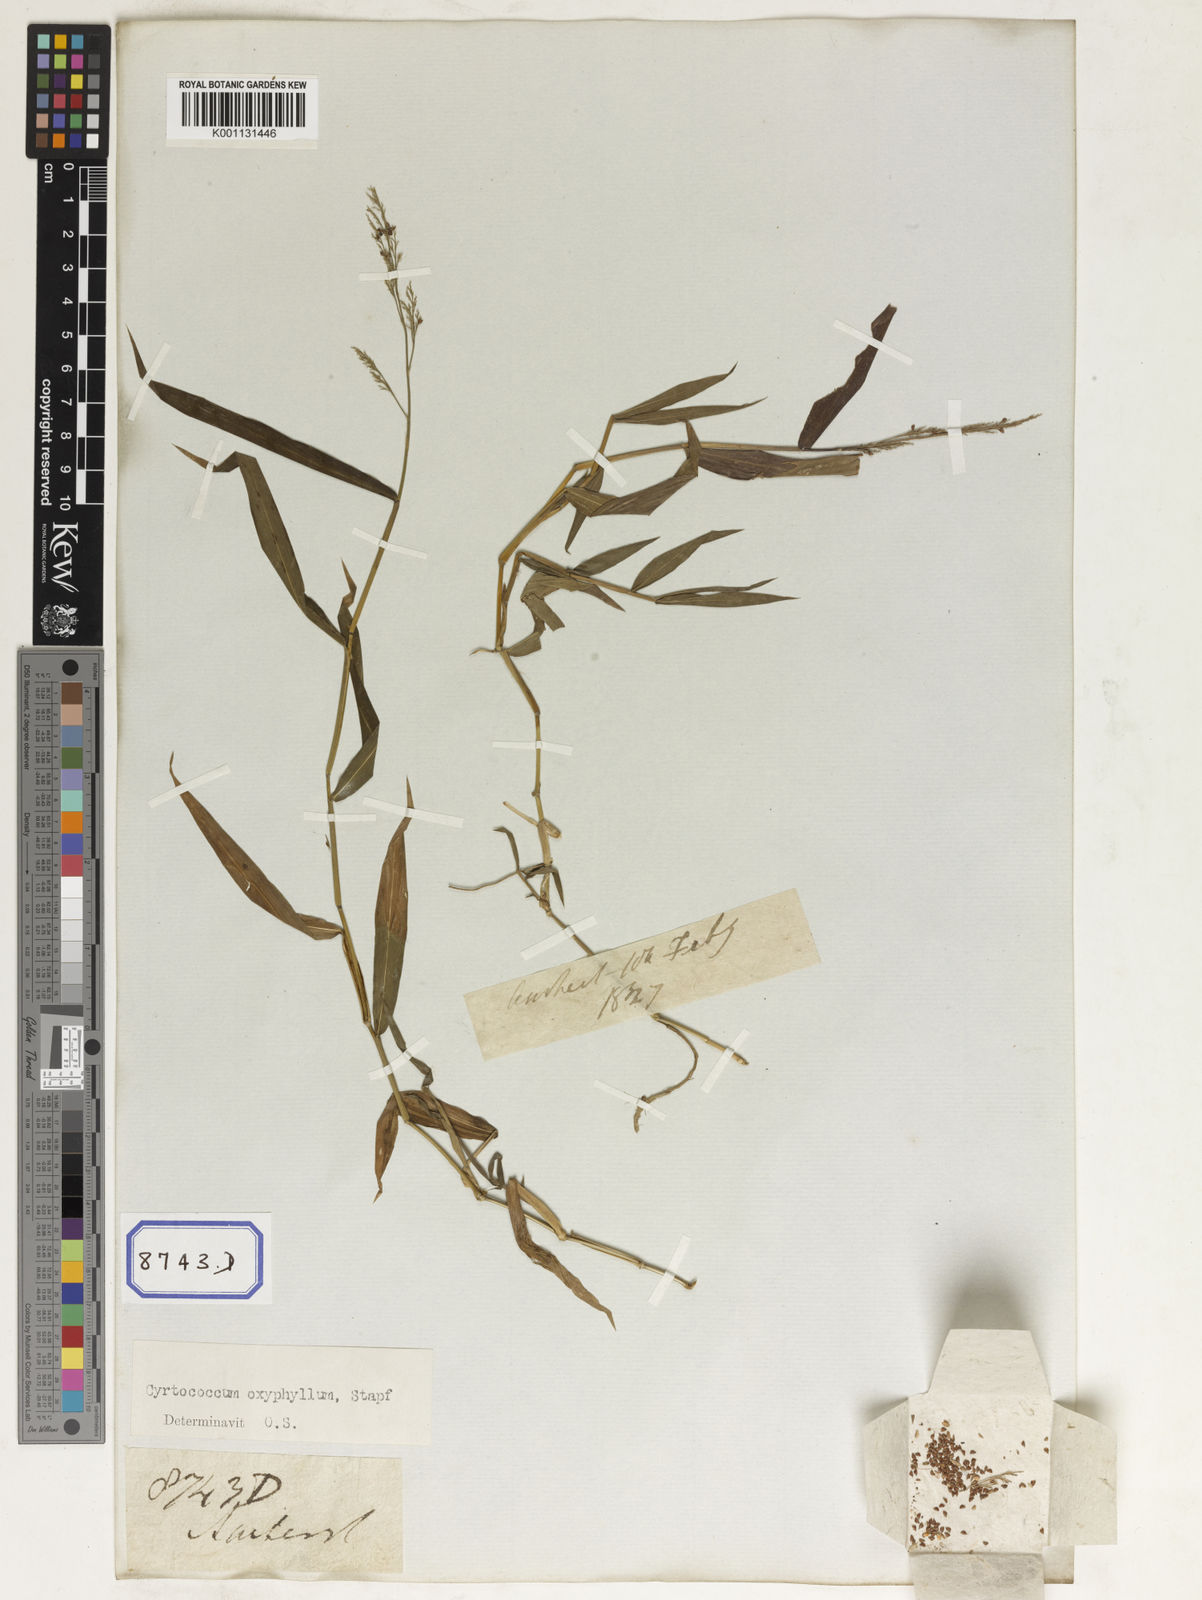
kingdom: Plantae
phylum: Tracheophyta
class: Liliopsida
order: Poales
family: Poaceae
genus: Panicum
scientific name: Panicum
